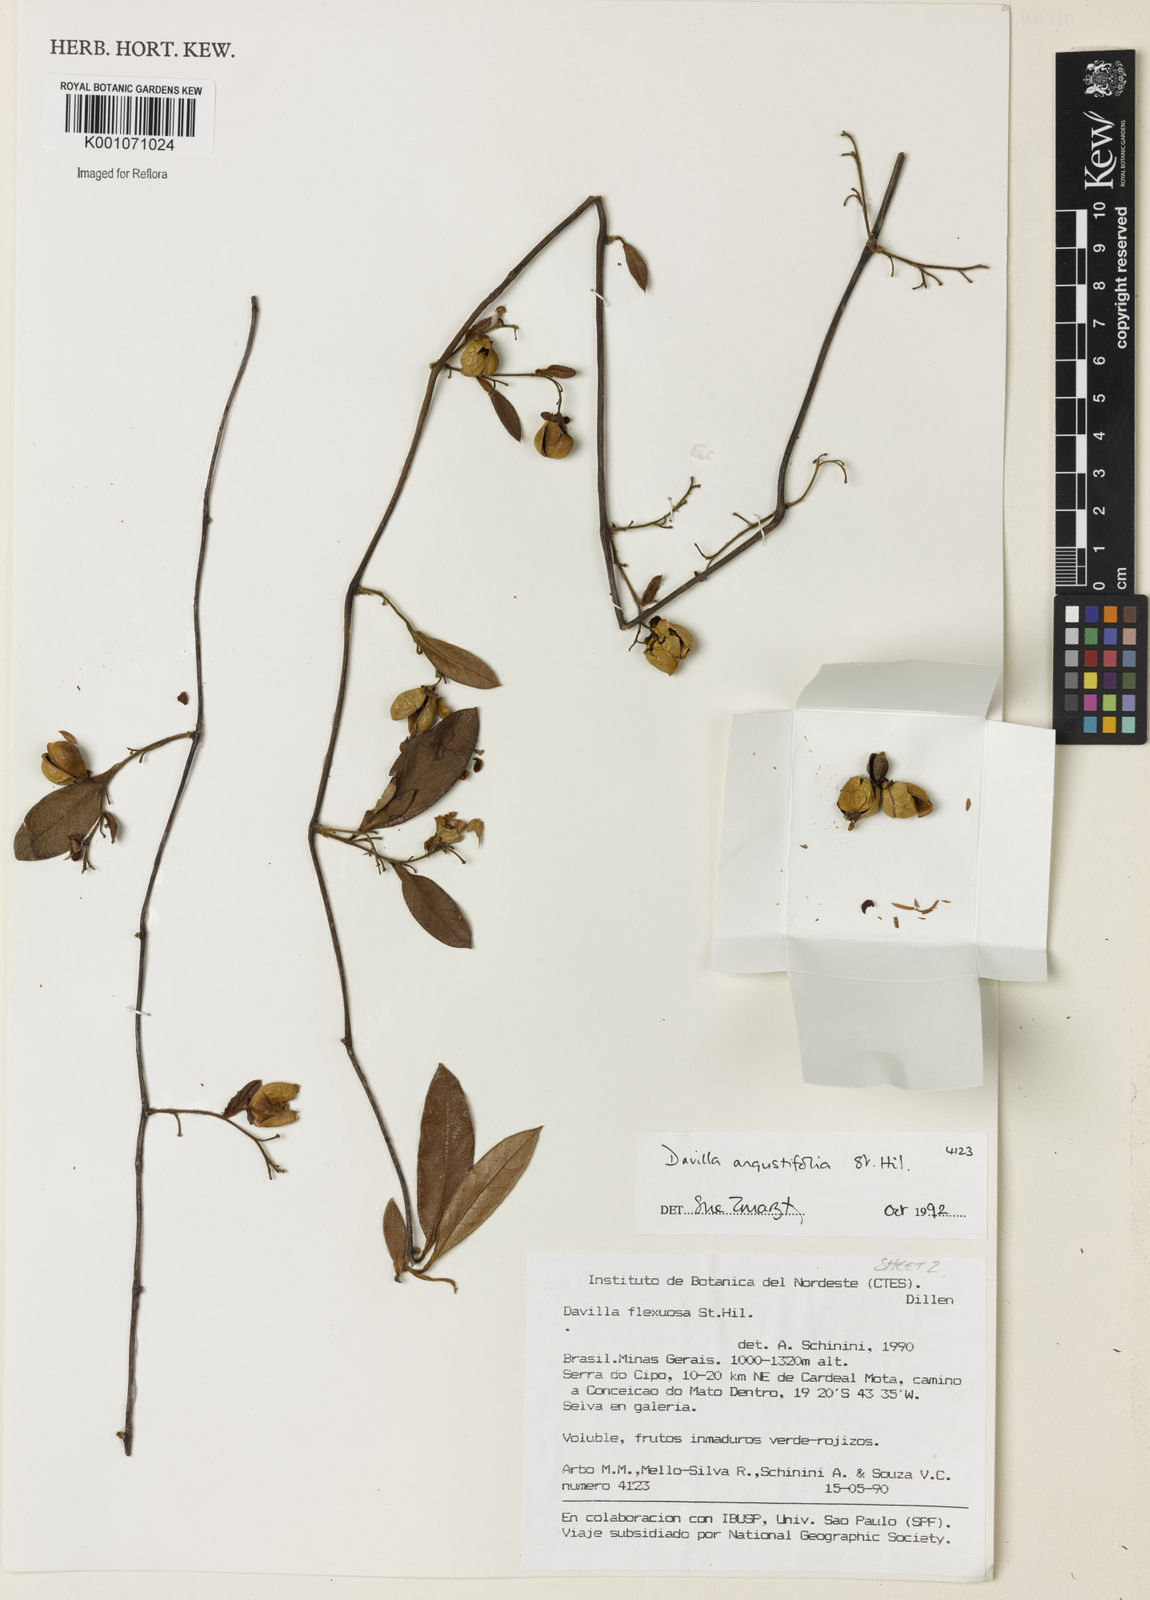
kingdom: Plantae
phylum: Tracheophyta
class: Magnoliopsida
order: Dilleniales
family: Dilleniaceae
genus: Davilla
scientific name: Davilla angustifolia
